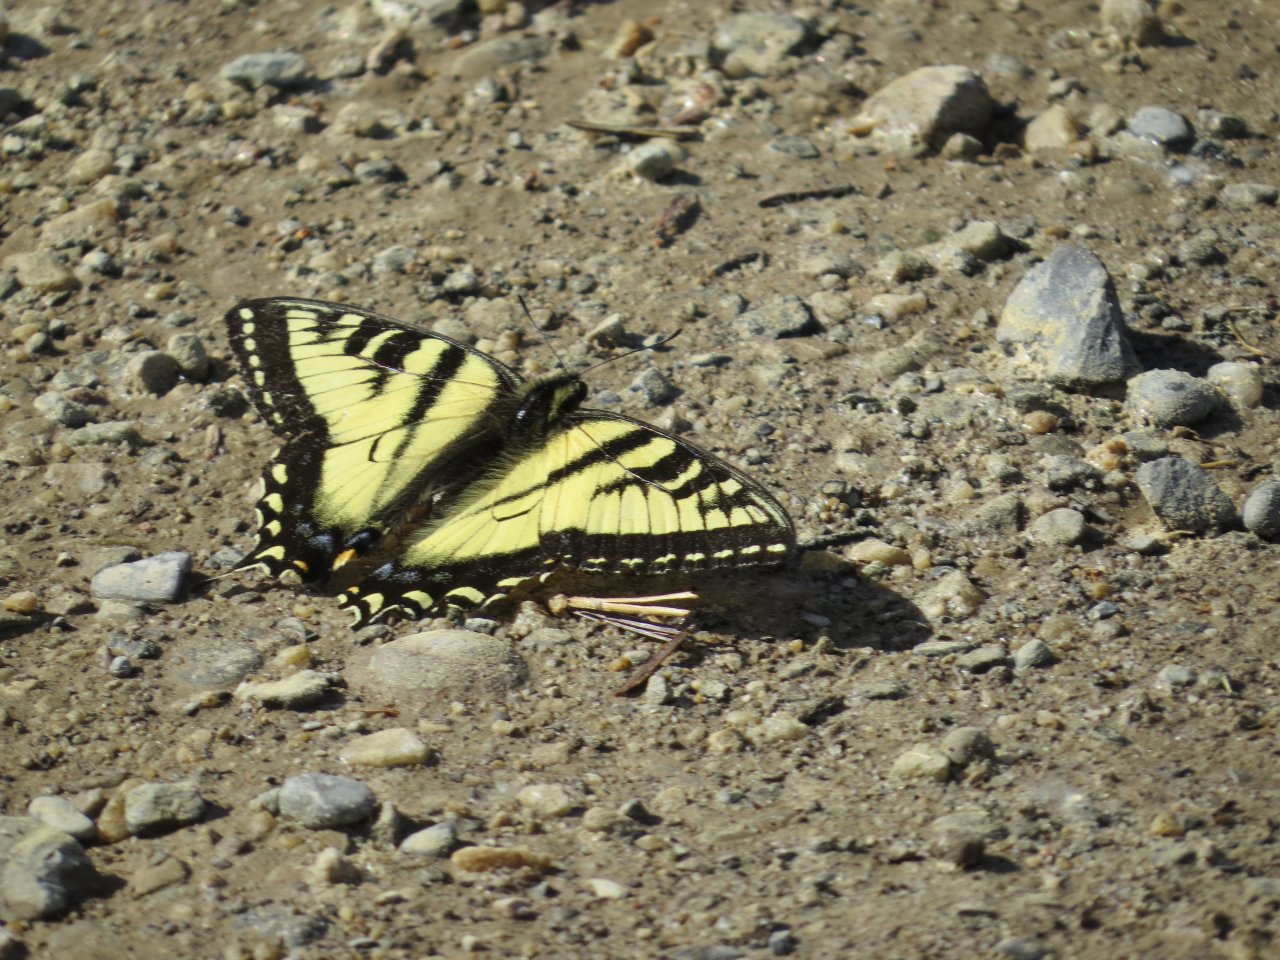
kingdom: Animalia
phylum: Arthropoda
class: Insecta
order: Lepidoptera
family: Papilionidae
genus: Pterourus
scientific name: Pterourus canadensis
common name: Canadian Tiger Swallowtail
